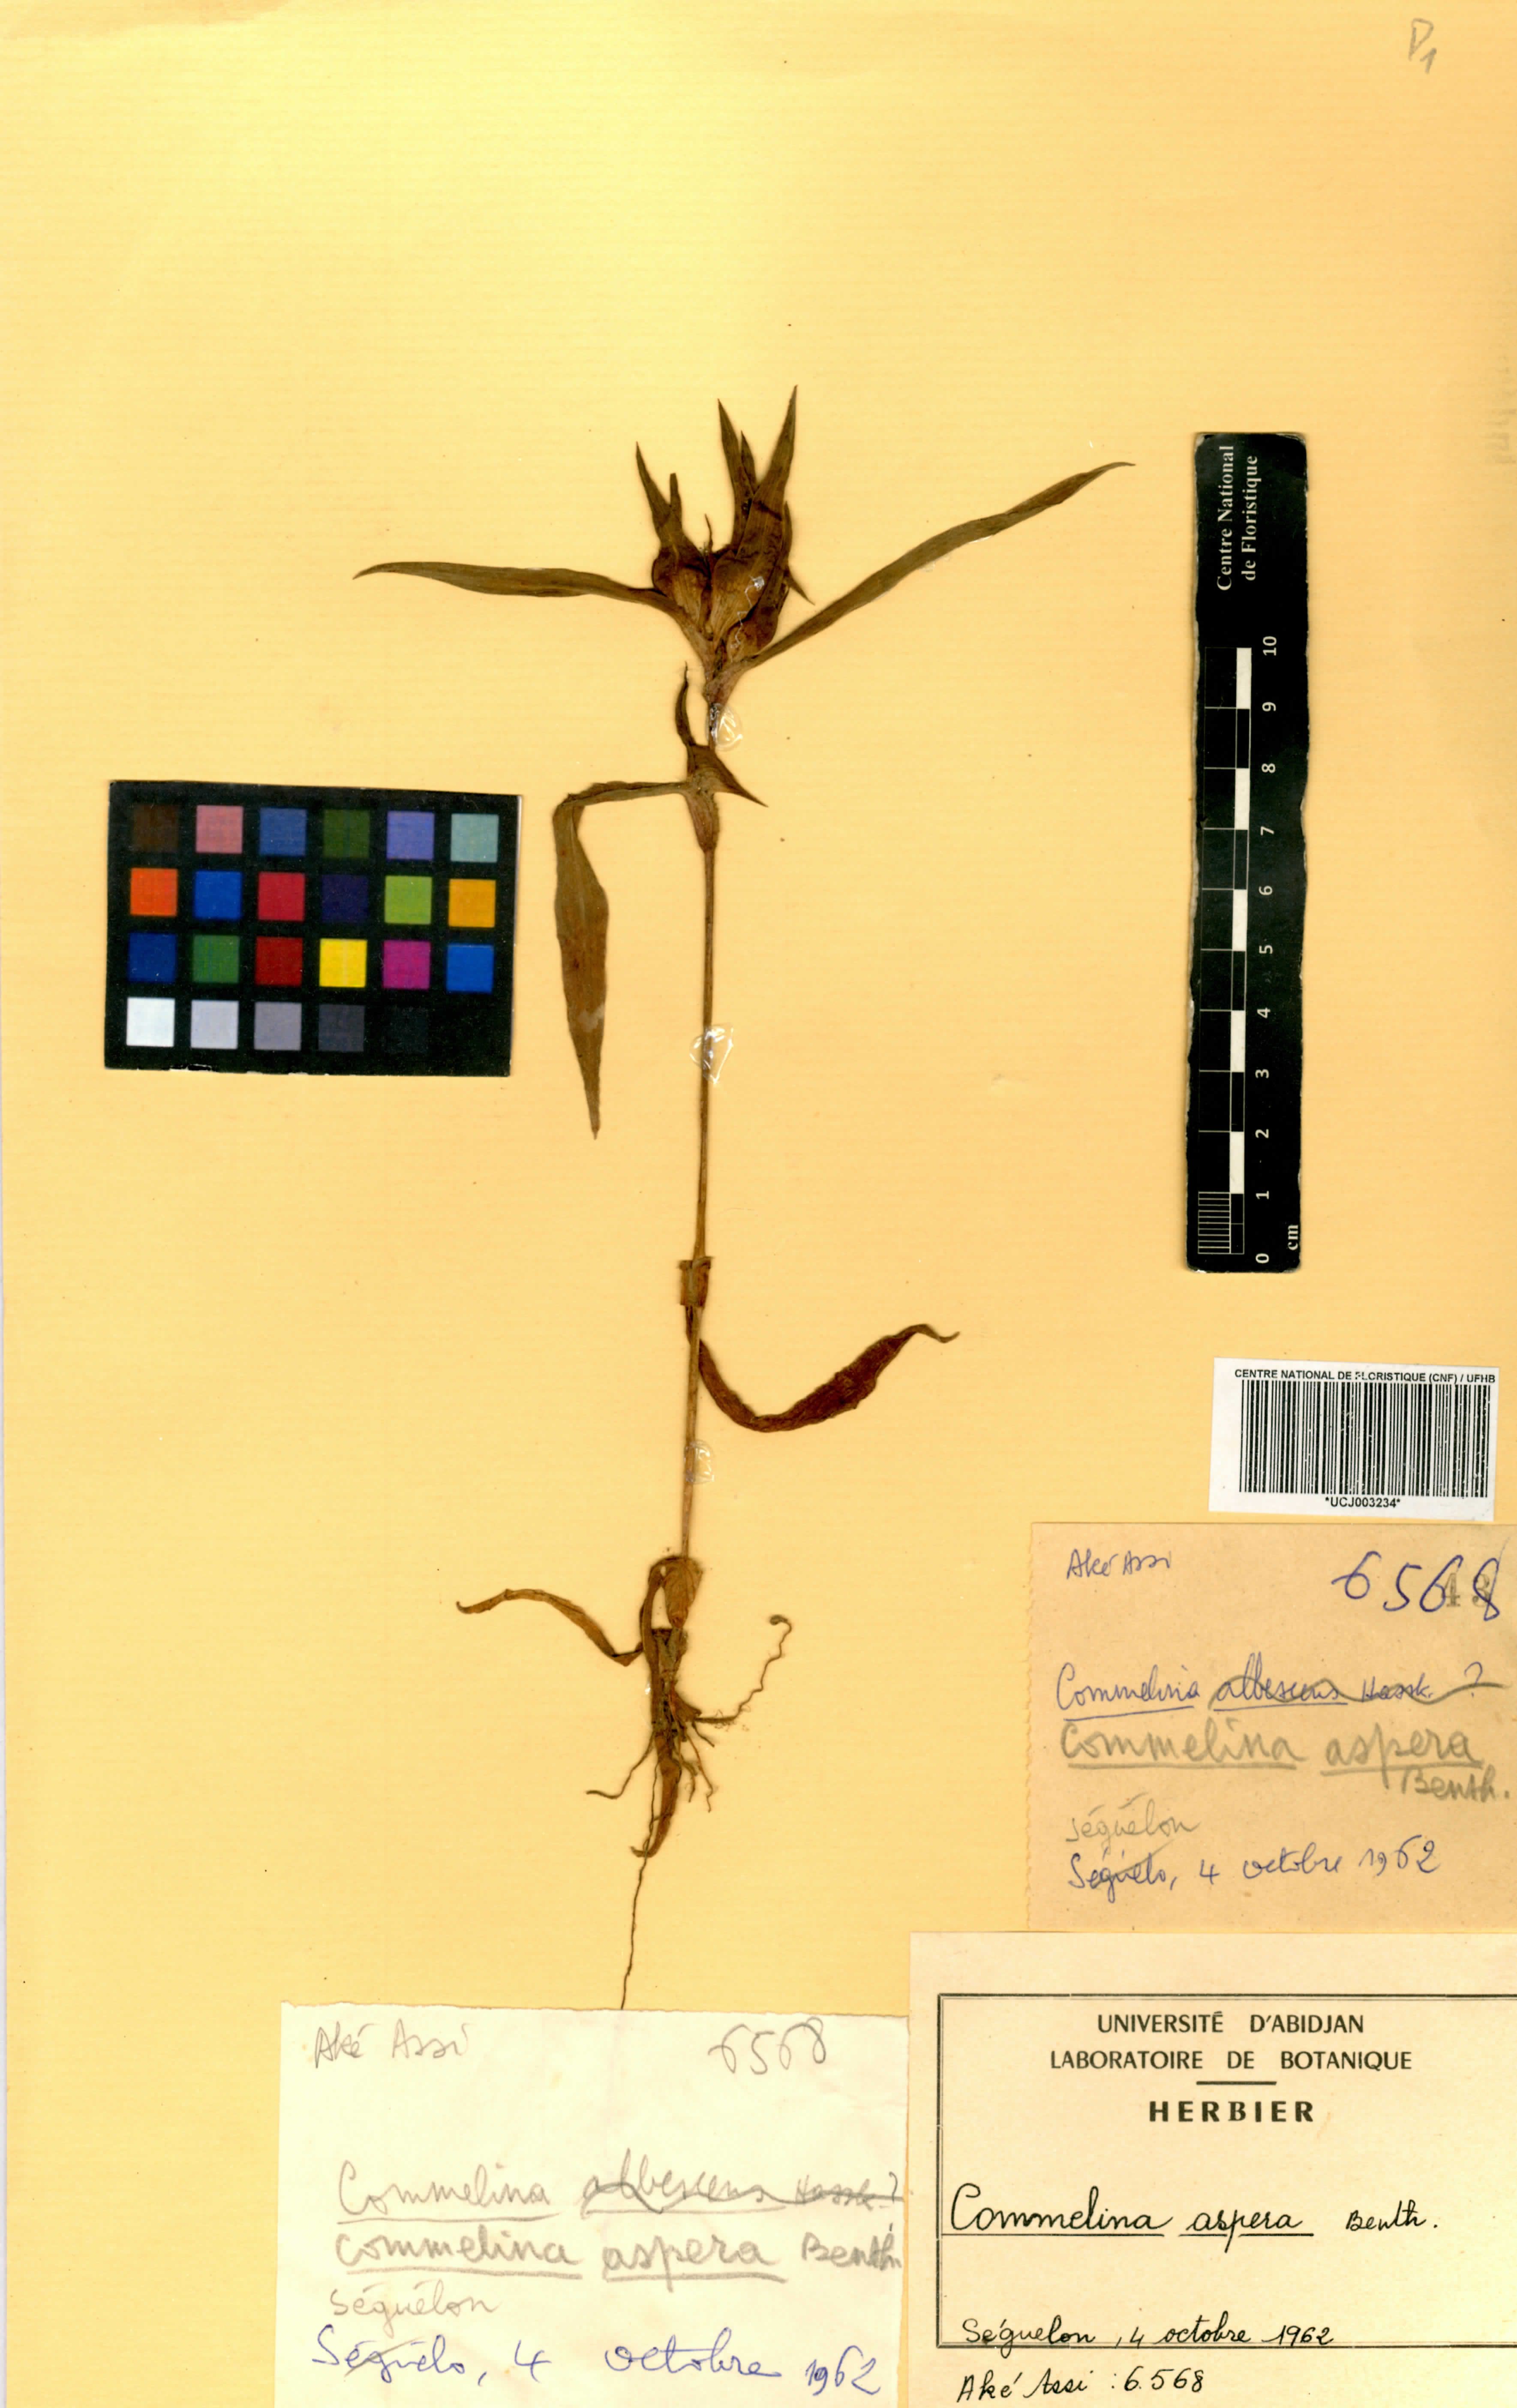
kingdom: Plantae
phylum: Tracheophyta
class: Liliopsida
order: Commelinales
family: Commelinaceae
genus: Commelina
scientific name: Commelina aspera
